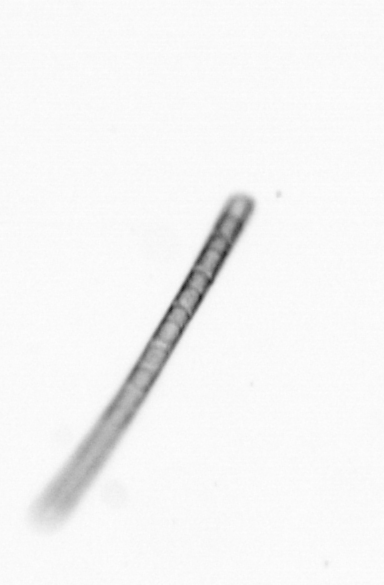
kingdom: Chromista
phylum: Ochrophyta
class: Bacillariophyceae
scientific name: Bacillariophyceae
